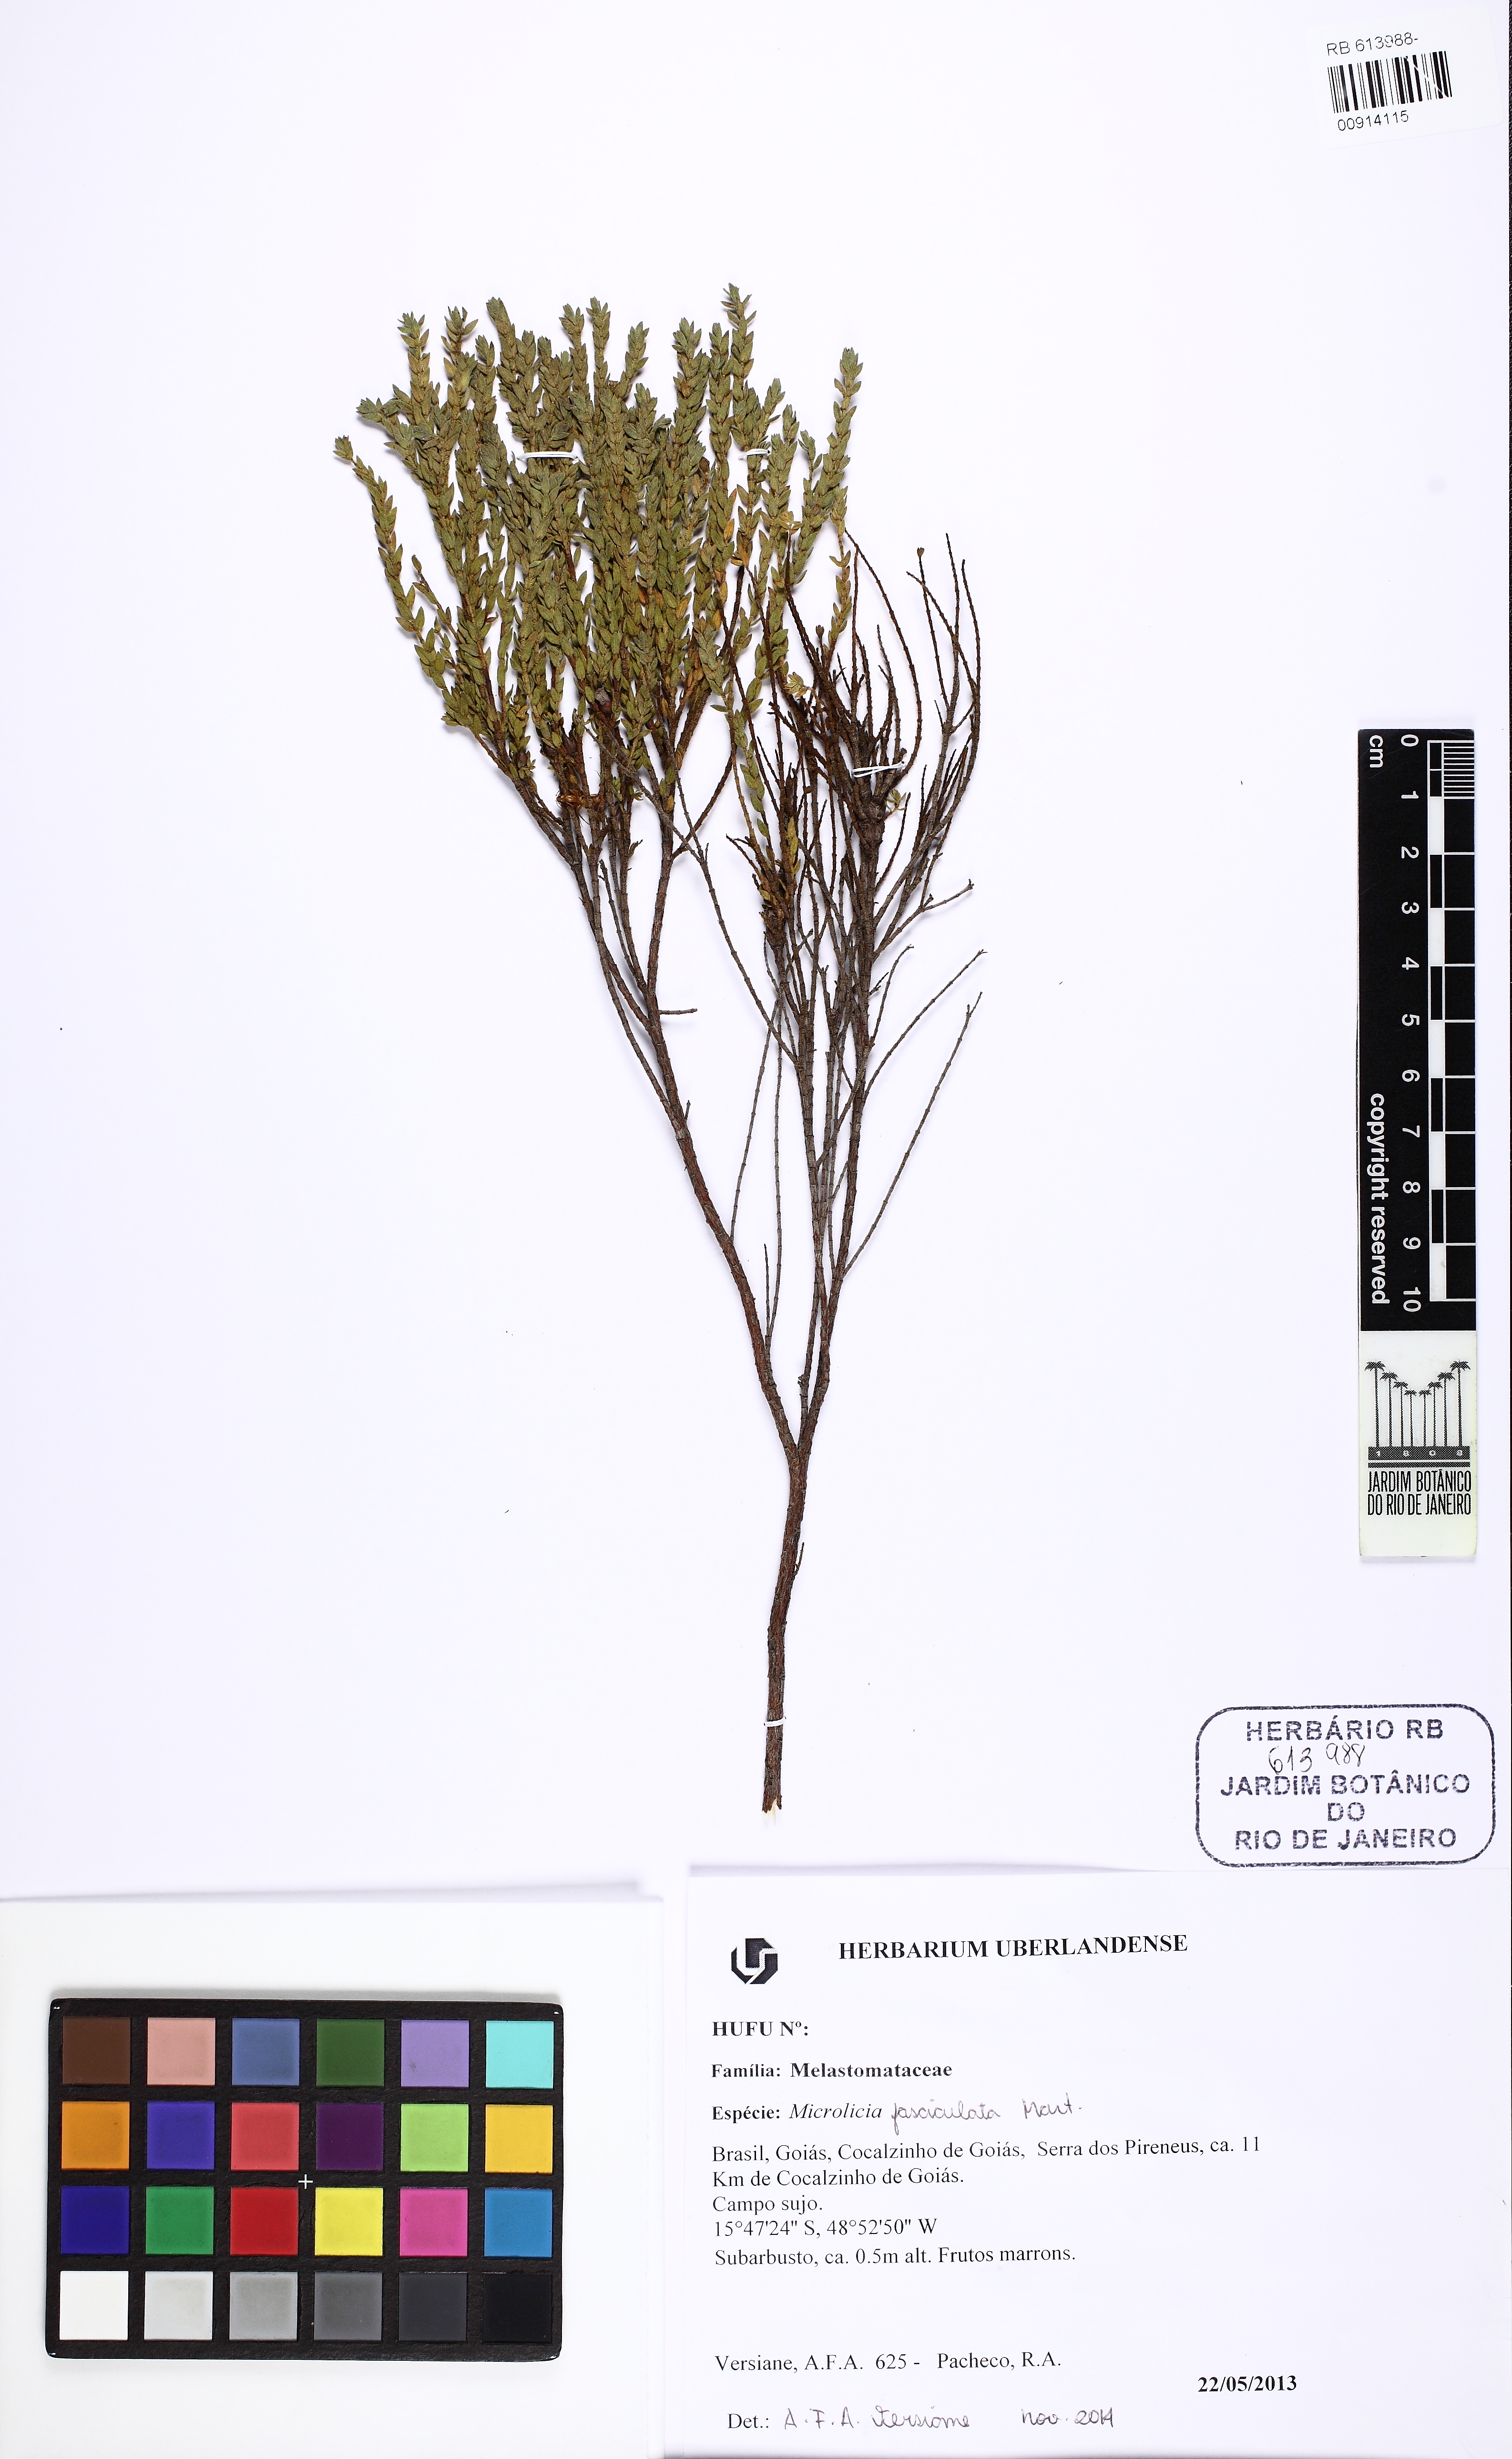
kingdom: Plantae
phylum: Tracheophyta
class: Magnoliopsida
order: Myrtales
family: Melastomataceae
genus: Microlicia
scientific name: Microlicia hirsuta
